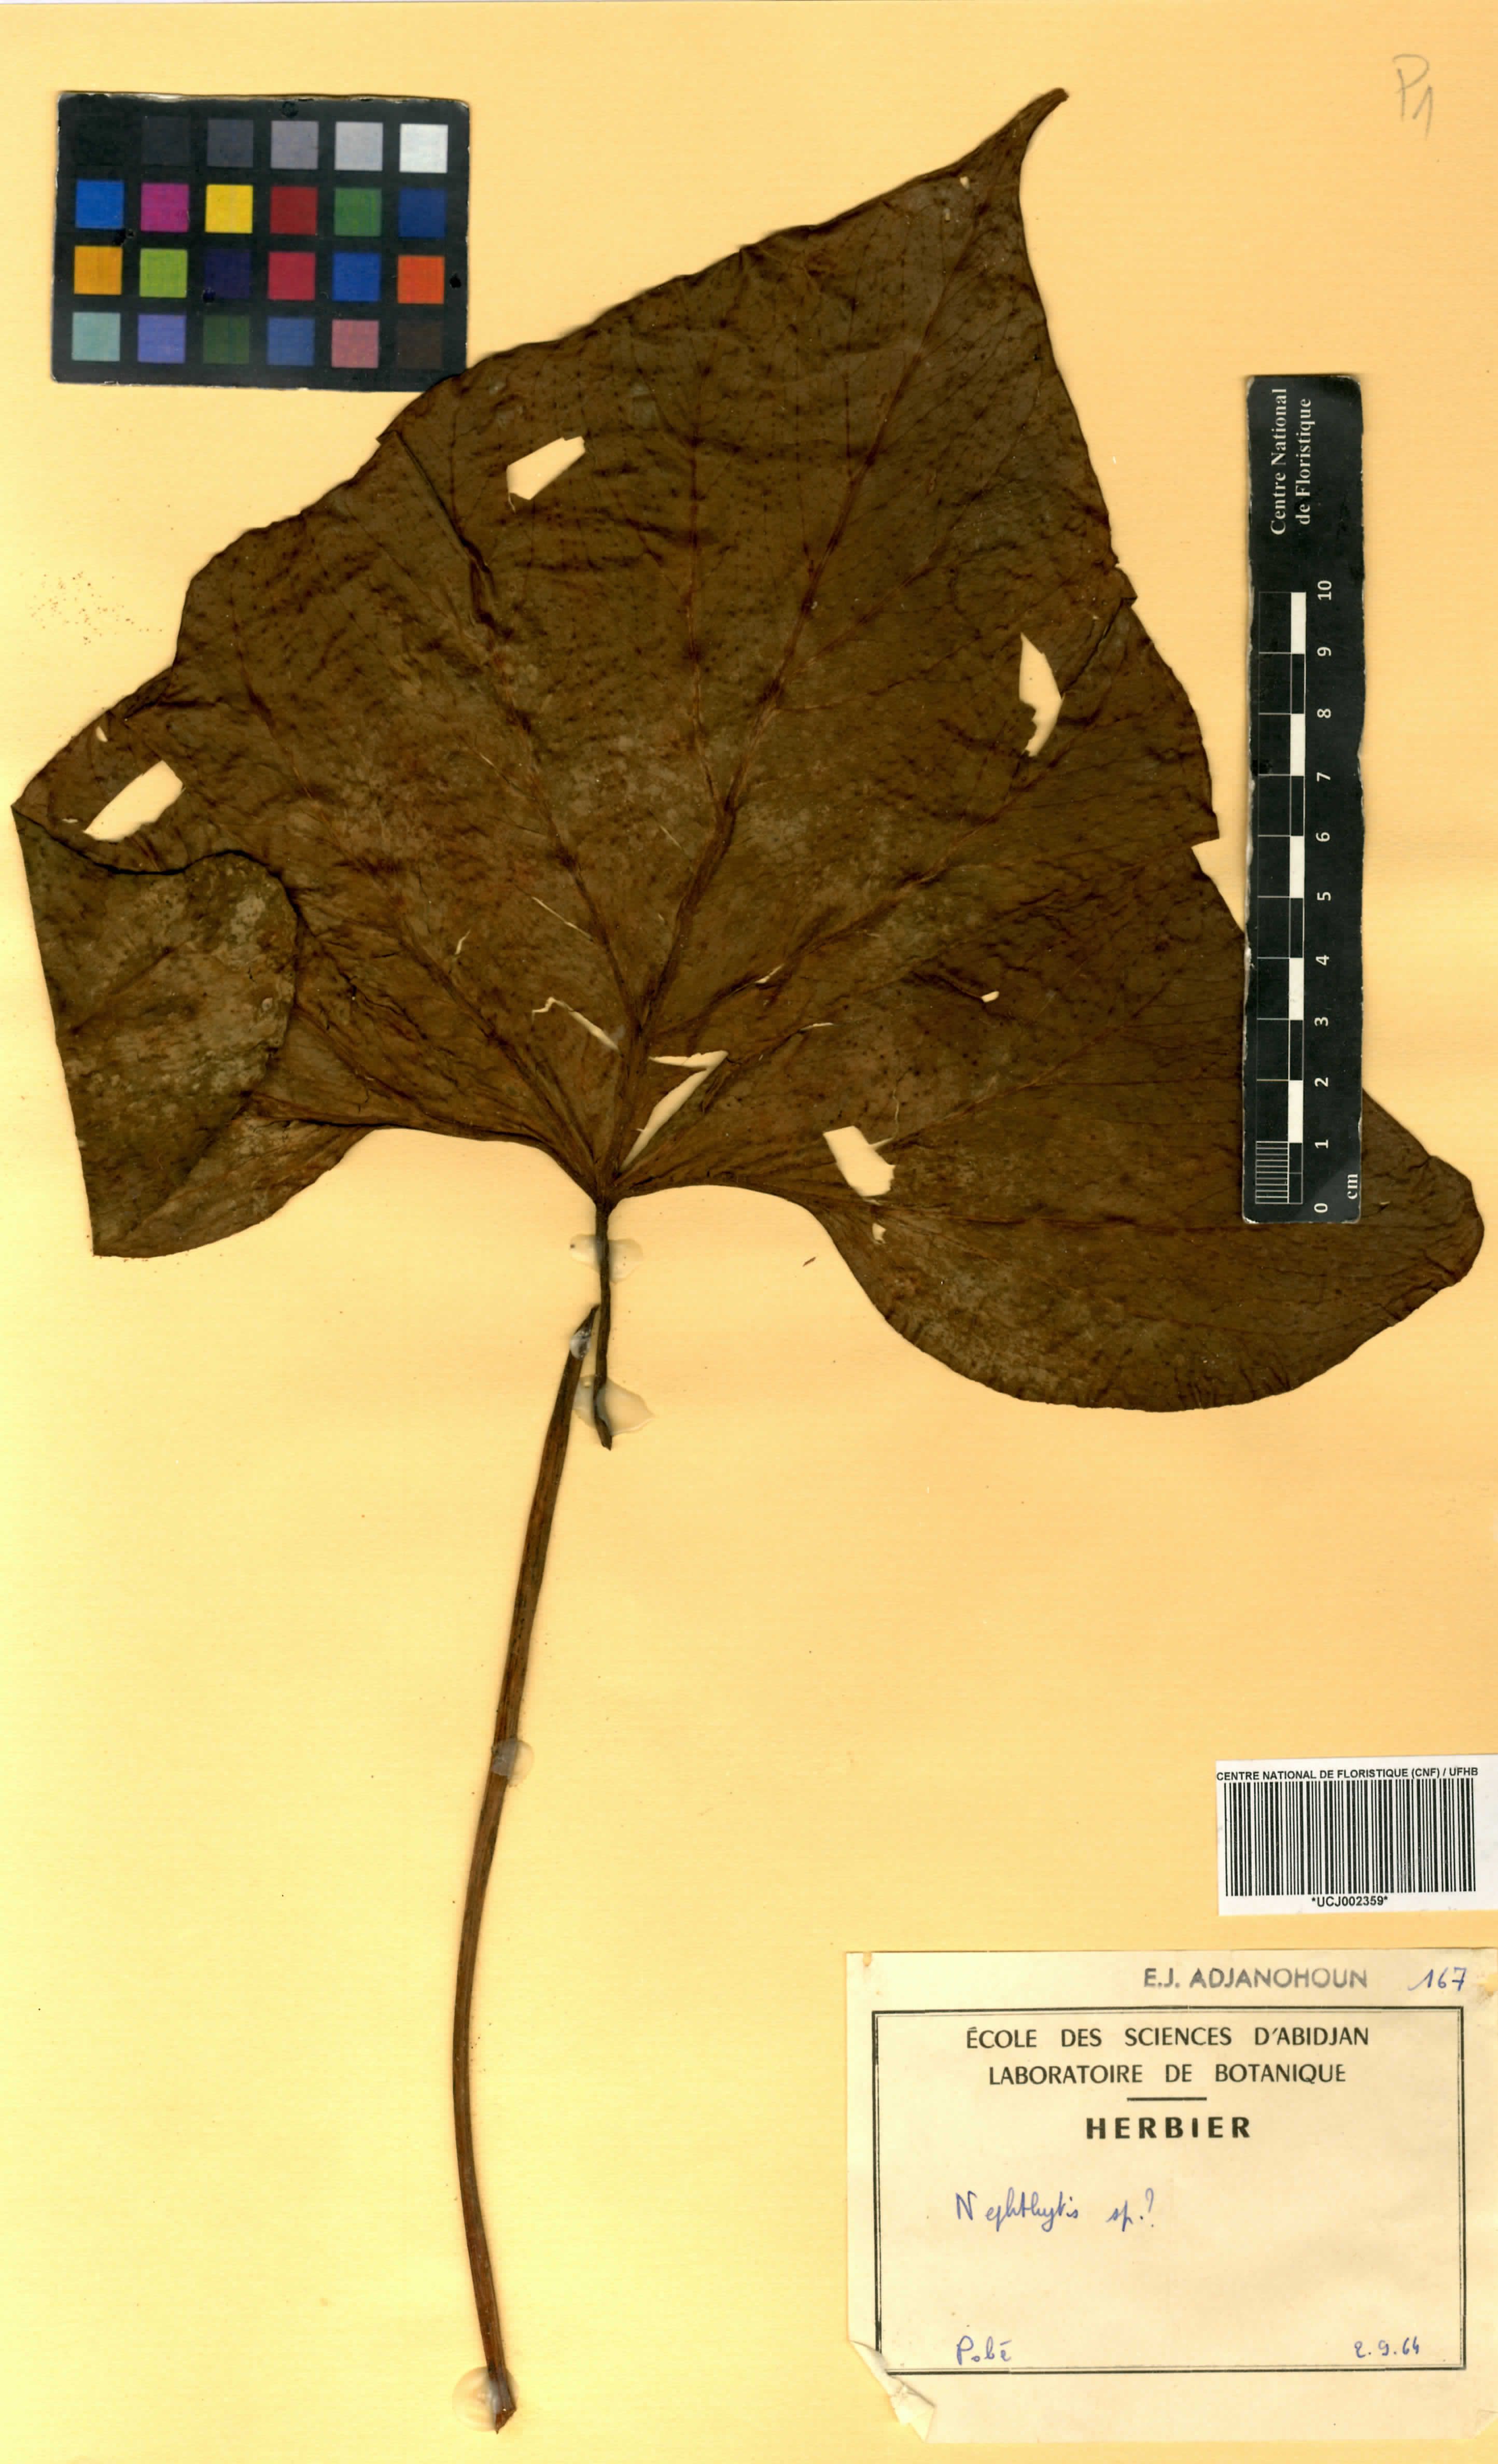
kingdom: Plantae
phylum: Tracheophyta
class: Liliopsida
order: Alismatales
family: Araceae
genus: Cercestis
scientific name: Cercestis congoensis
